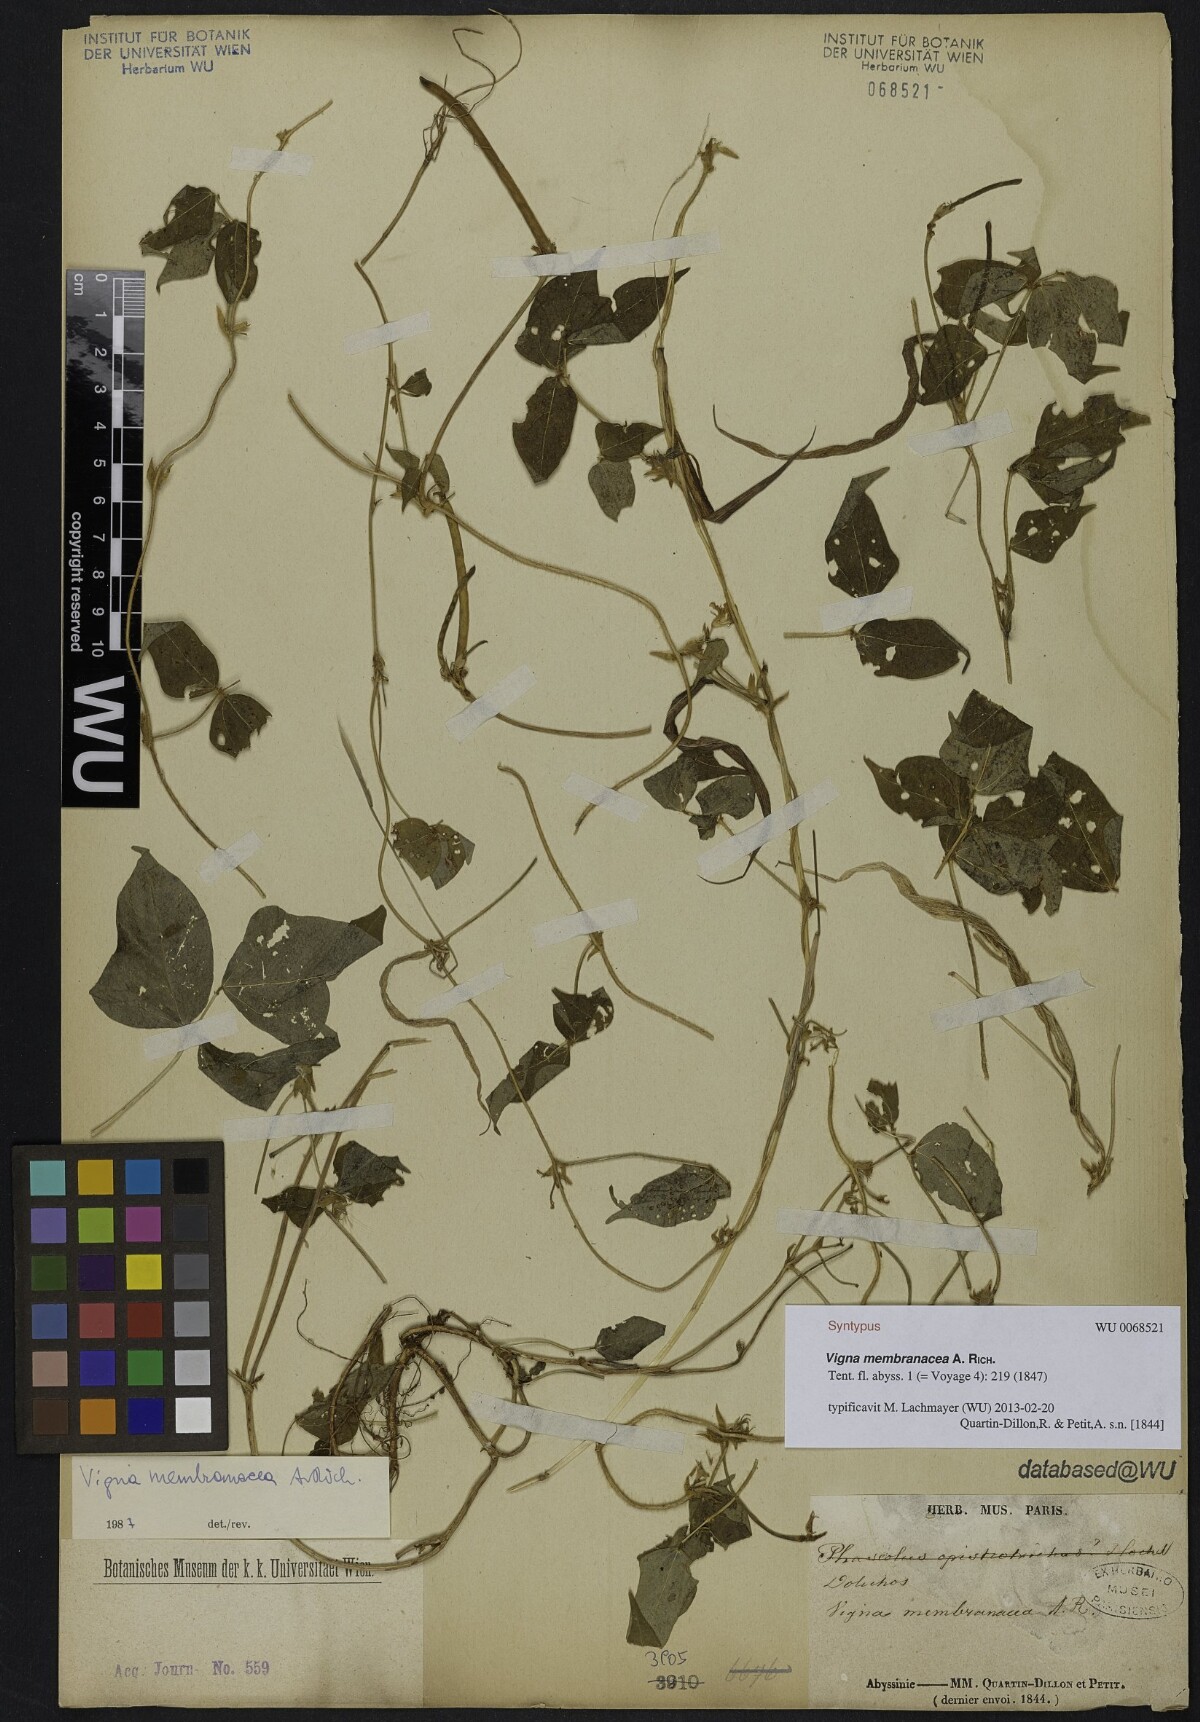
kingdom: Plantae
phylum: Tracheophyta
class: Magnoliopsida
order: Fabales
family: Fabaceae
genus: Vigna
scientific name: Vigna membranacea
